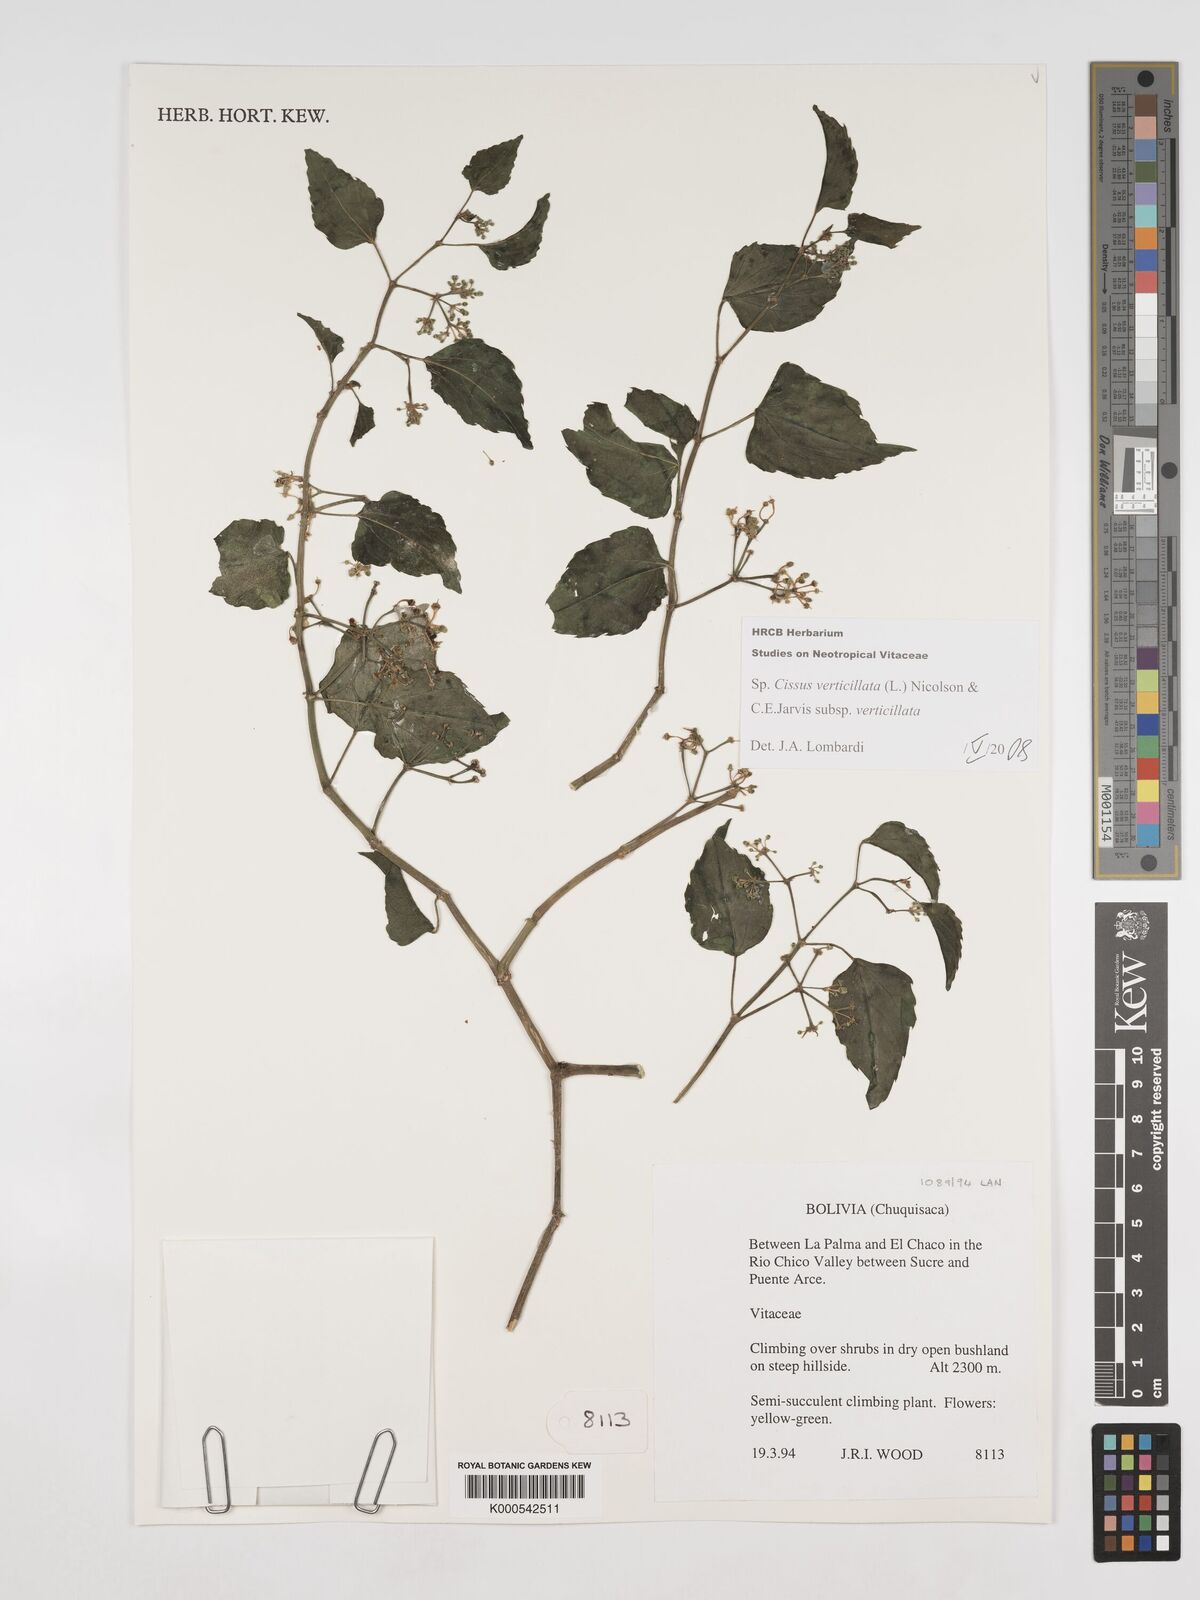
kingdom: Plantae
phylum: Tracheophyta
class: Magnoliopsida
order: Vitales
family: Vitaceae
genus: Cissus
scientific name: Cissus verticillata
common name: Princess vine
